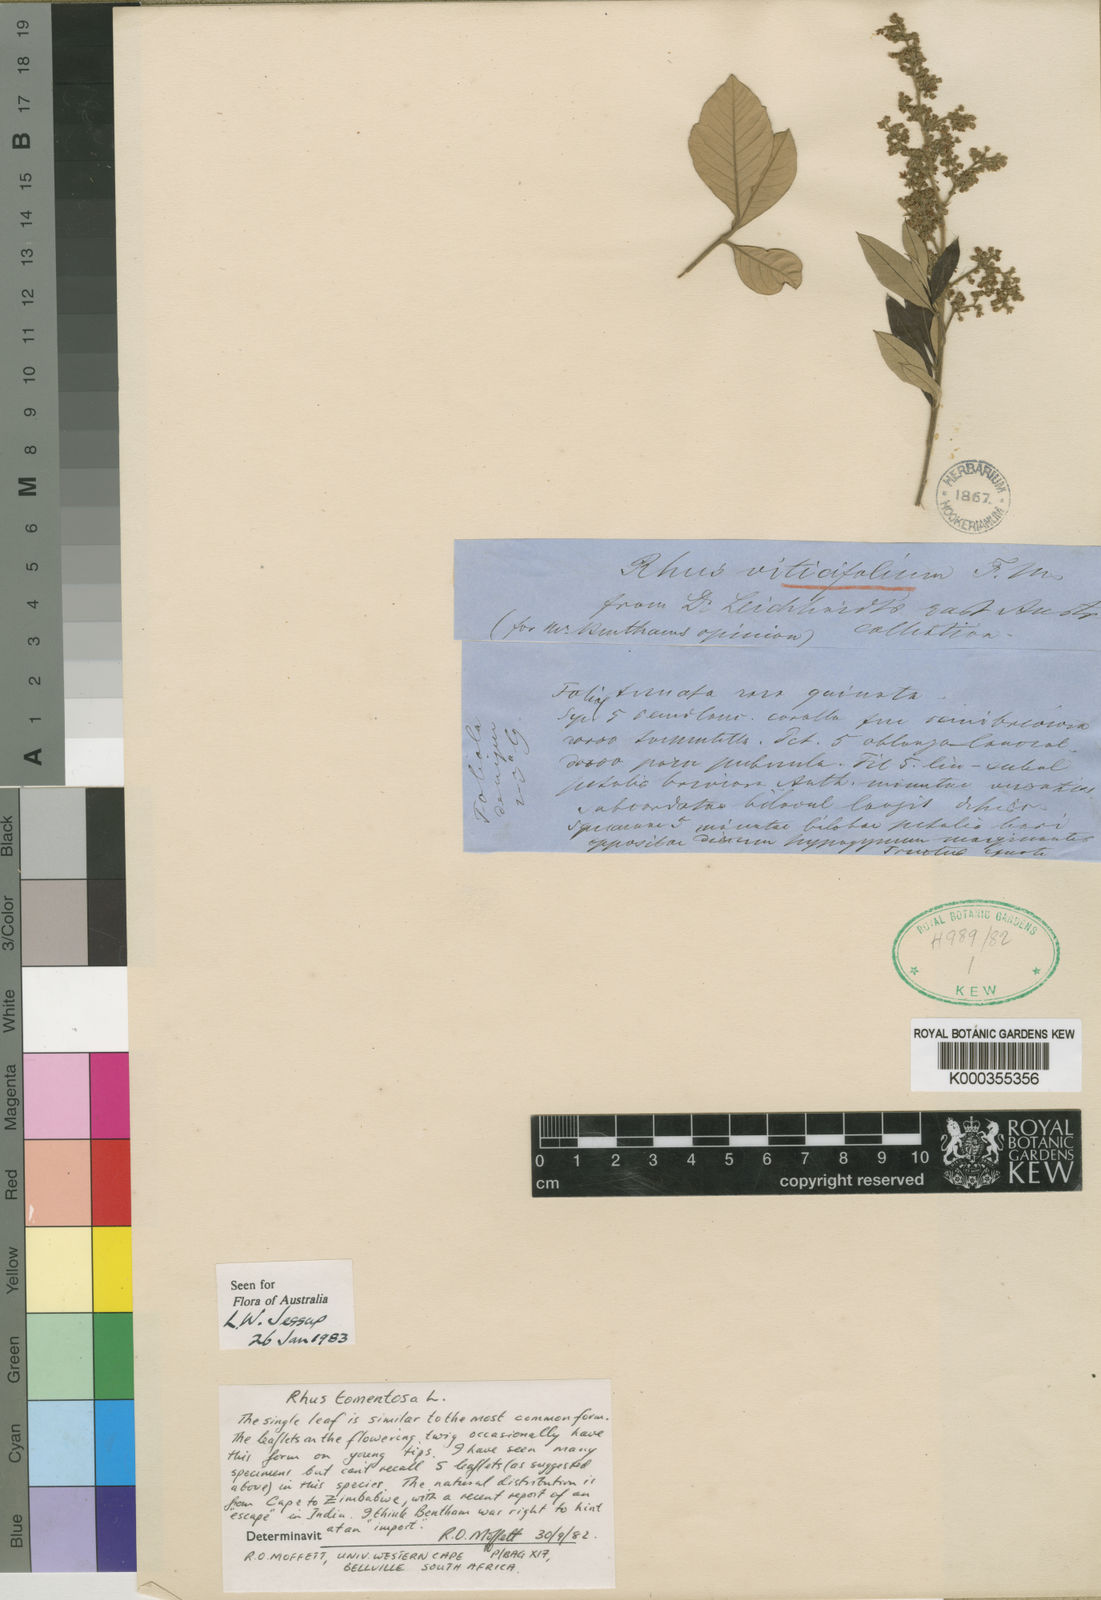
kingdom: Plantae
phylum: Tracheophyta
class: Magnoliopsida
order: Sapindales
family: Anacardiaceae
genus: Searsia
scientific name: Searsia tomentosa
